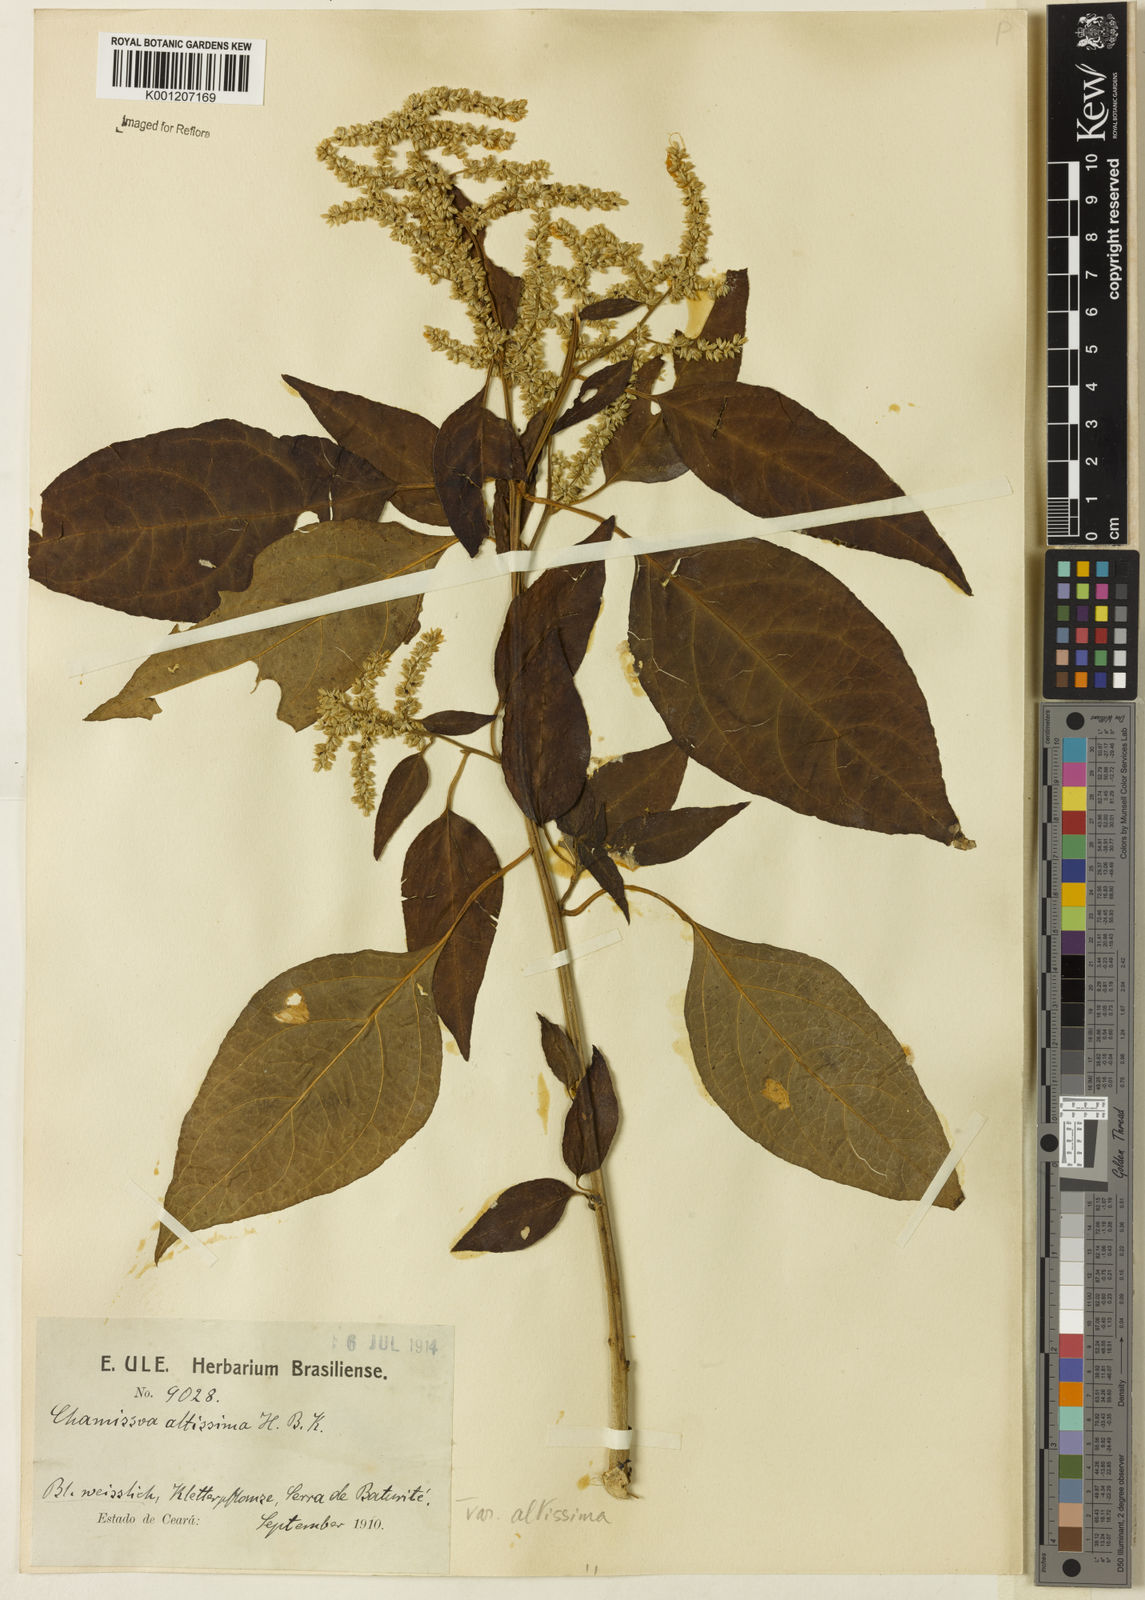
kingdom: Plantae
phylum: Tracheophyta
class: Magnoliopsida
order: Caryophyllales
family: Amaranthaceae
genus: Chamissoa
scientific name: Chamissoa altissima
